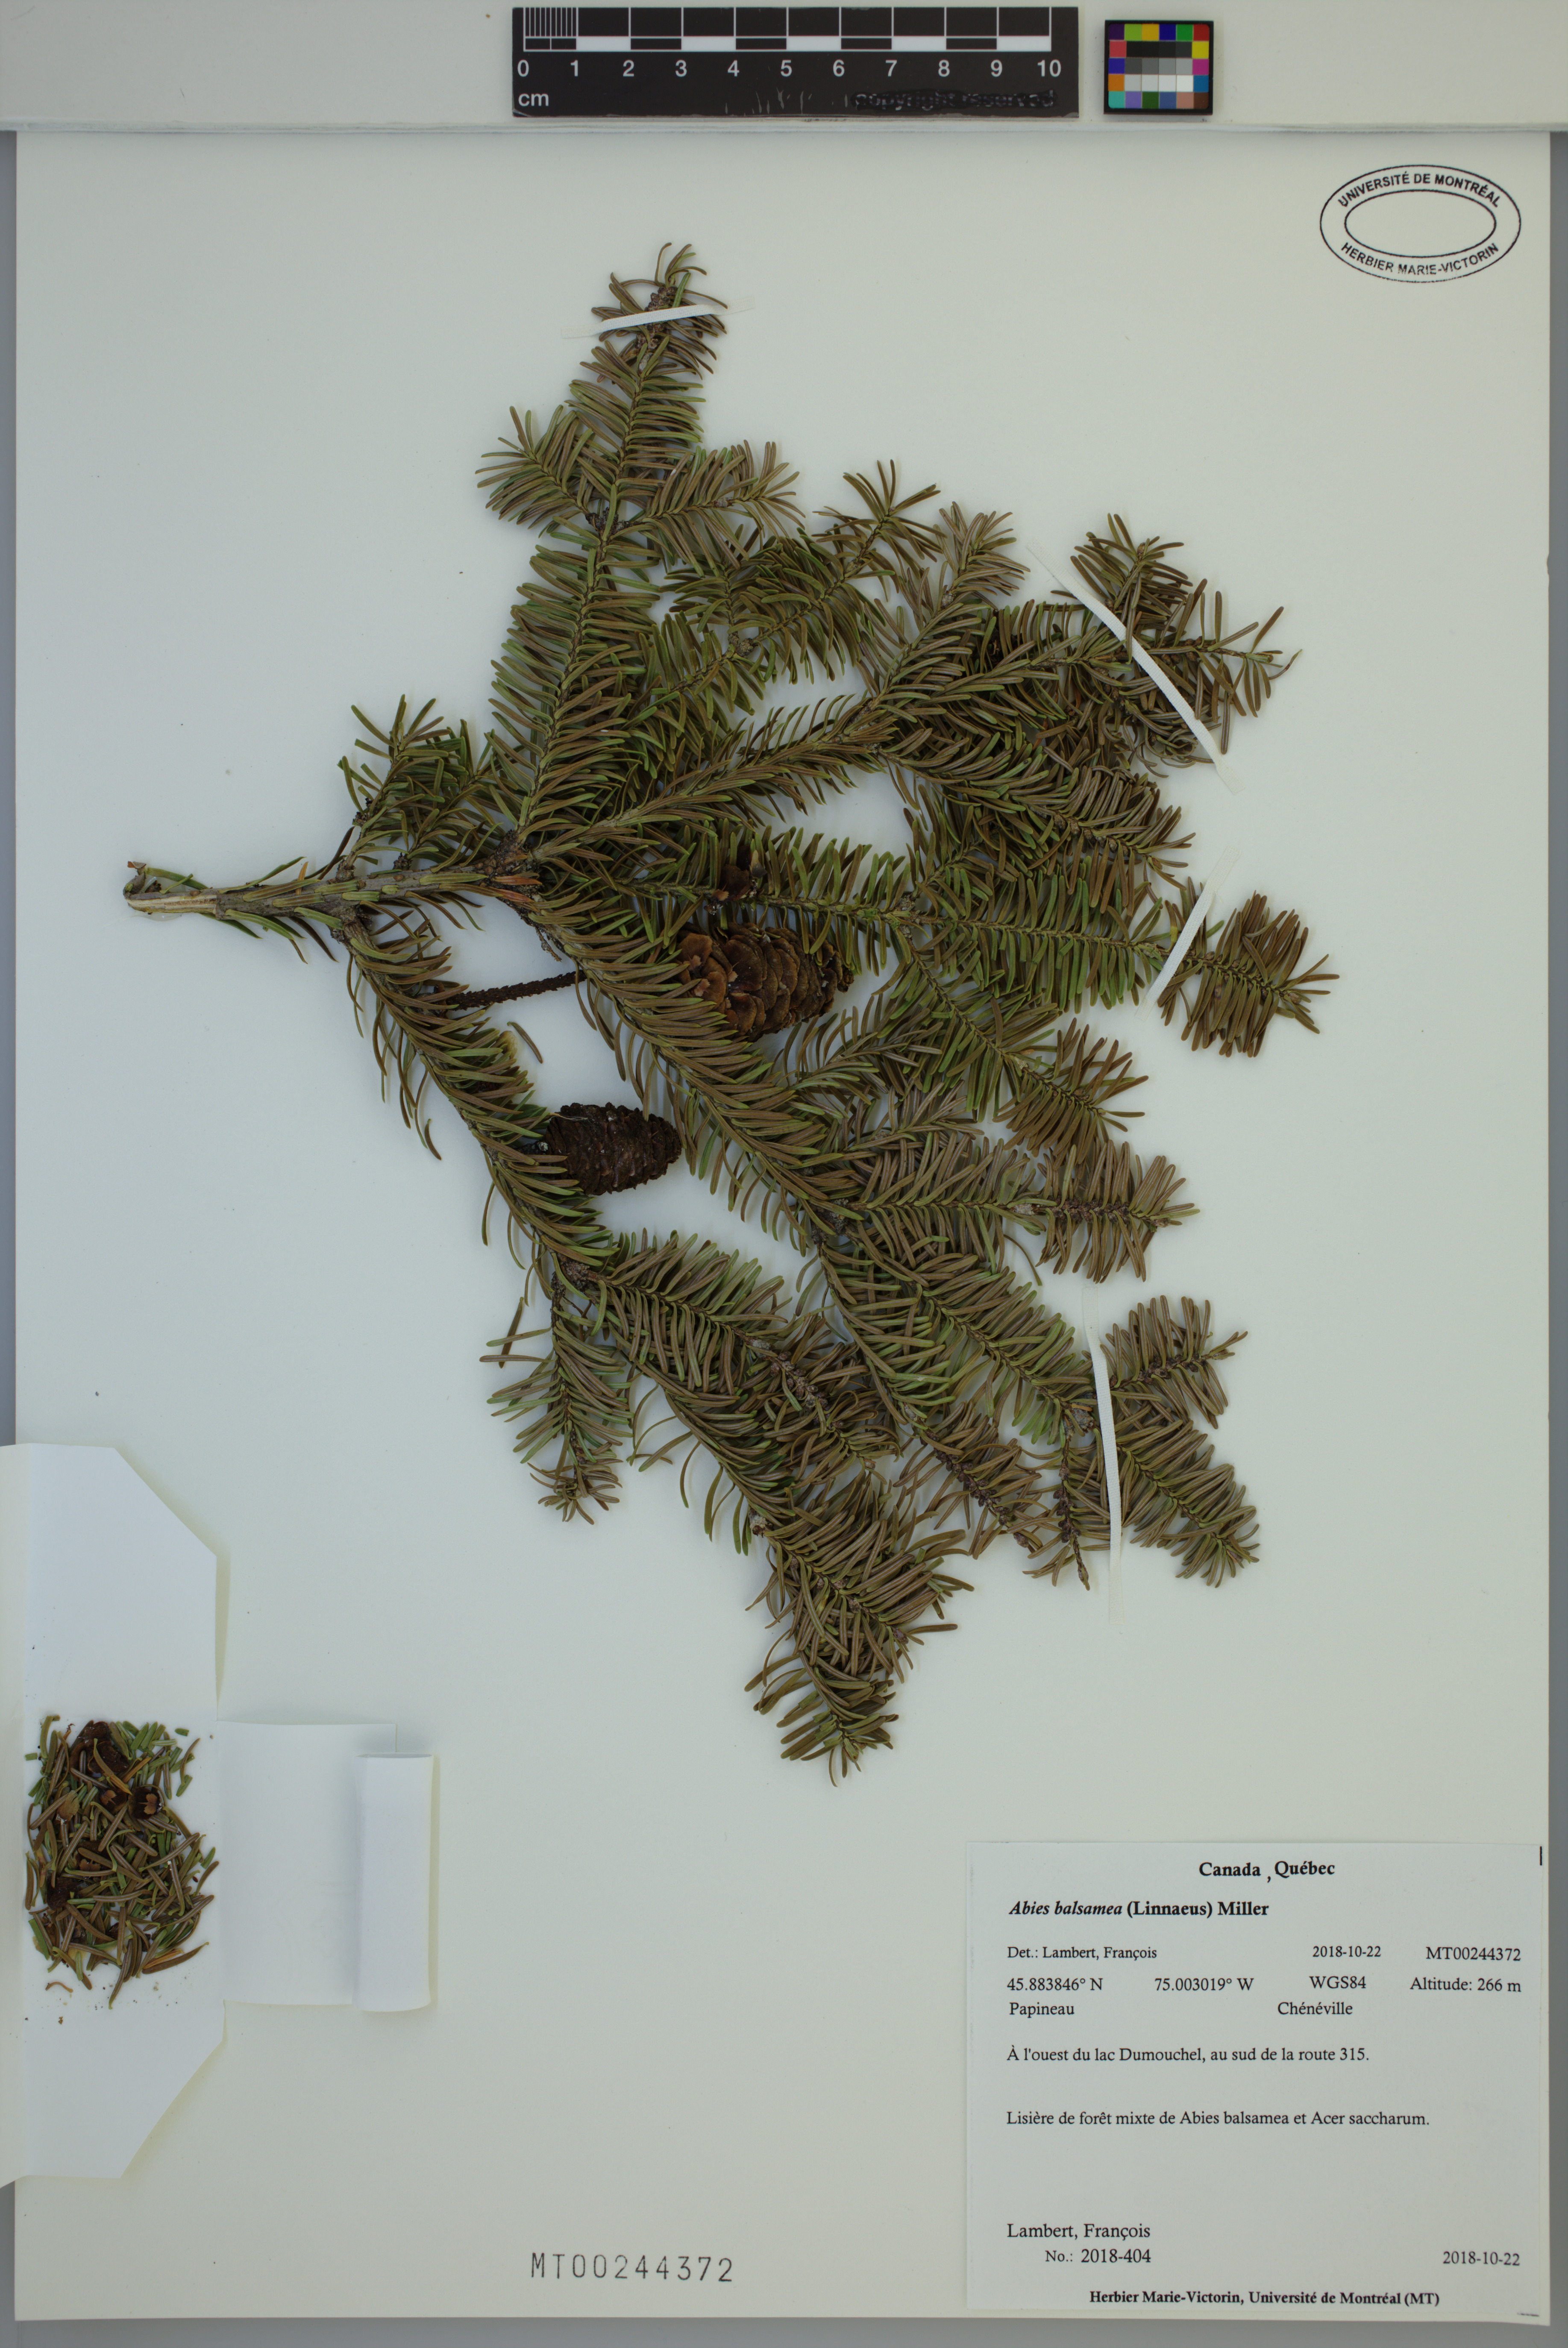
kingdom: Plantae
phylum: Tracheophyta
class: Pinopsida
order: Pinales
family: Pinaceae
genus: Abies
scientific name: Abies balsamea
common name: Balsam fir
